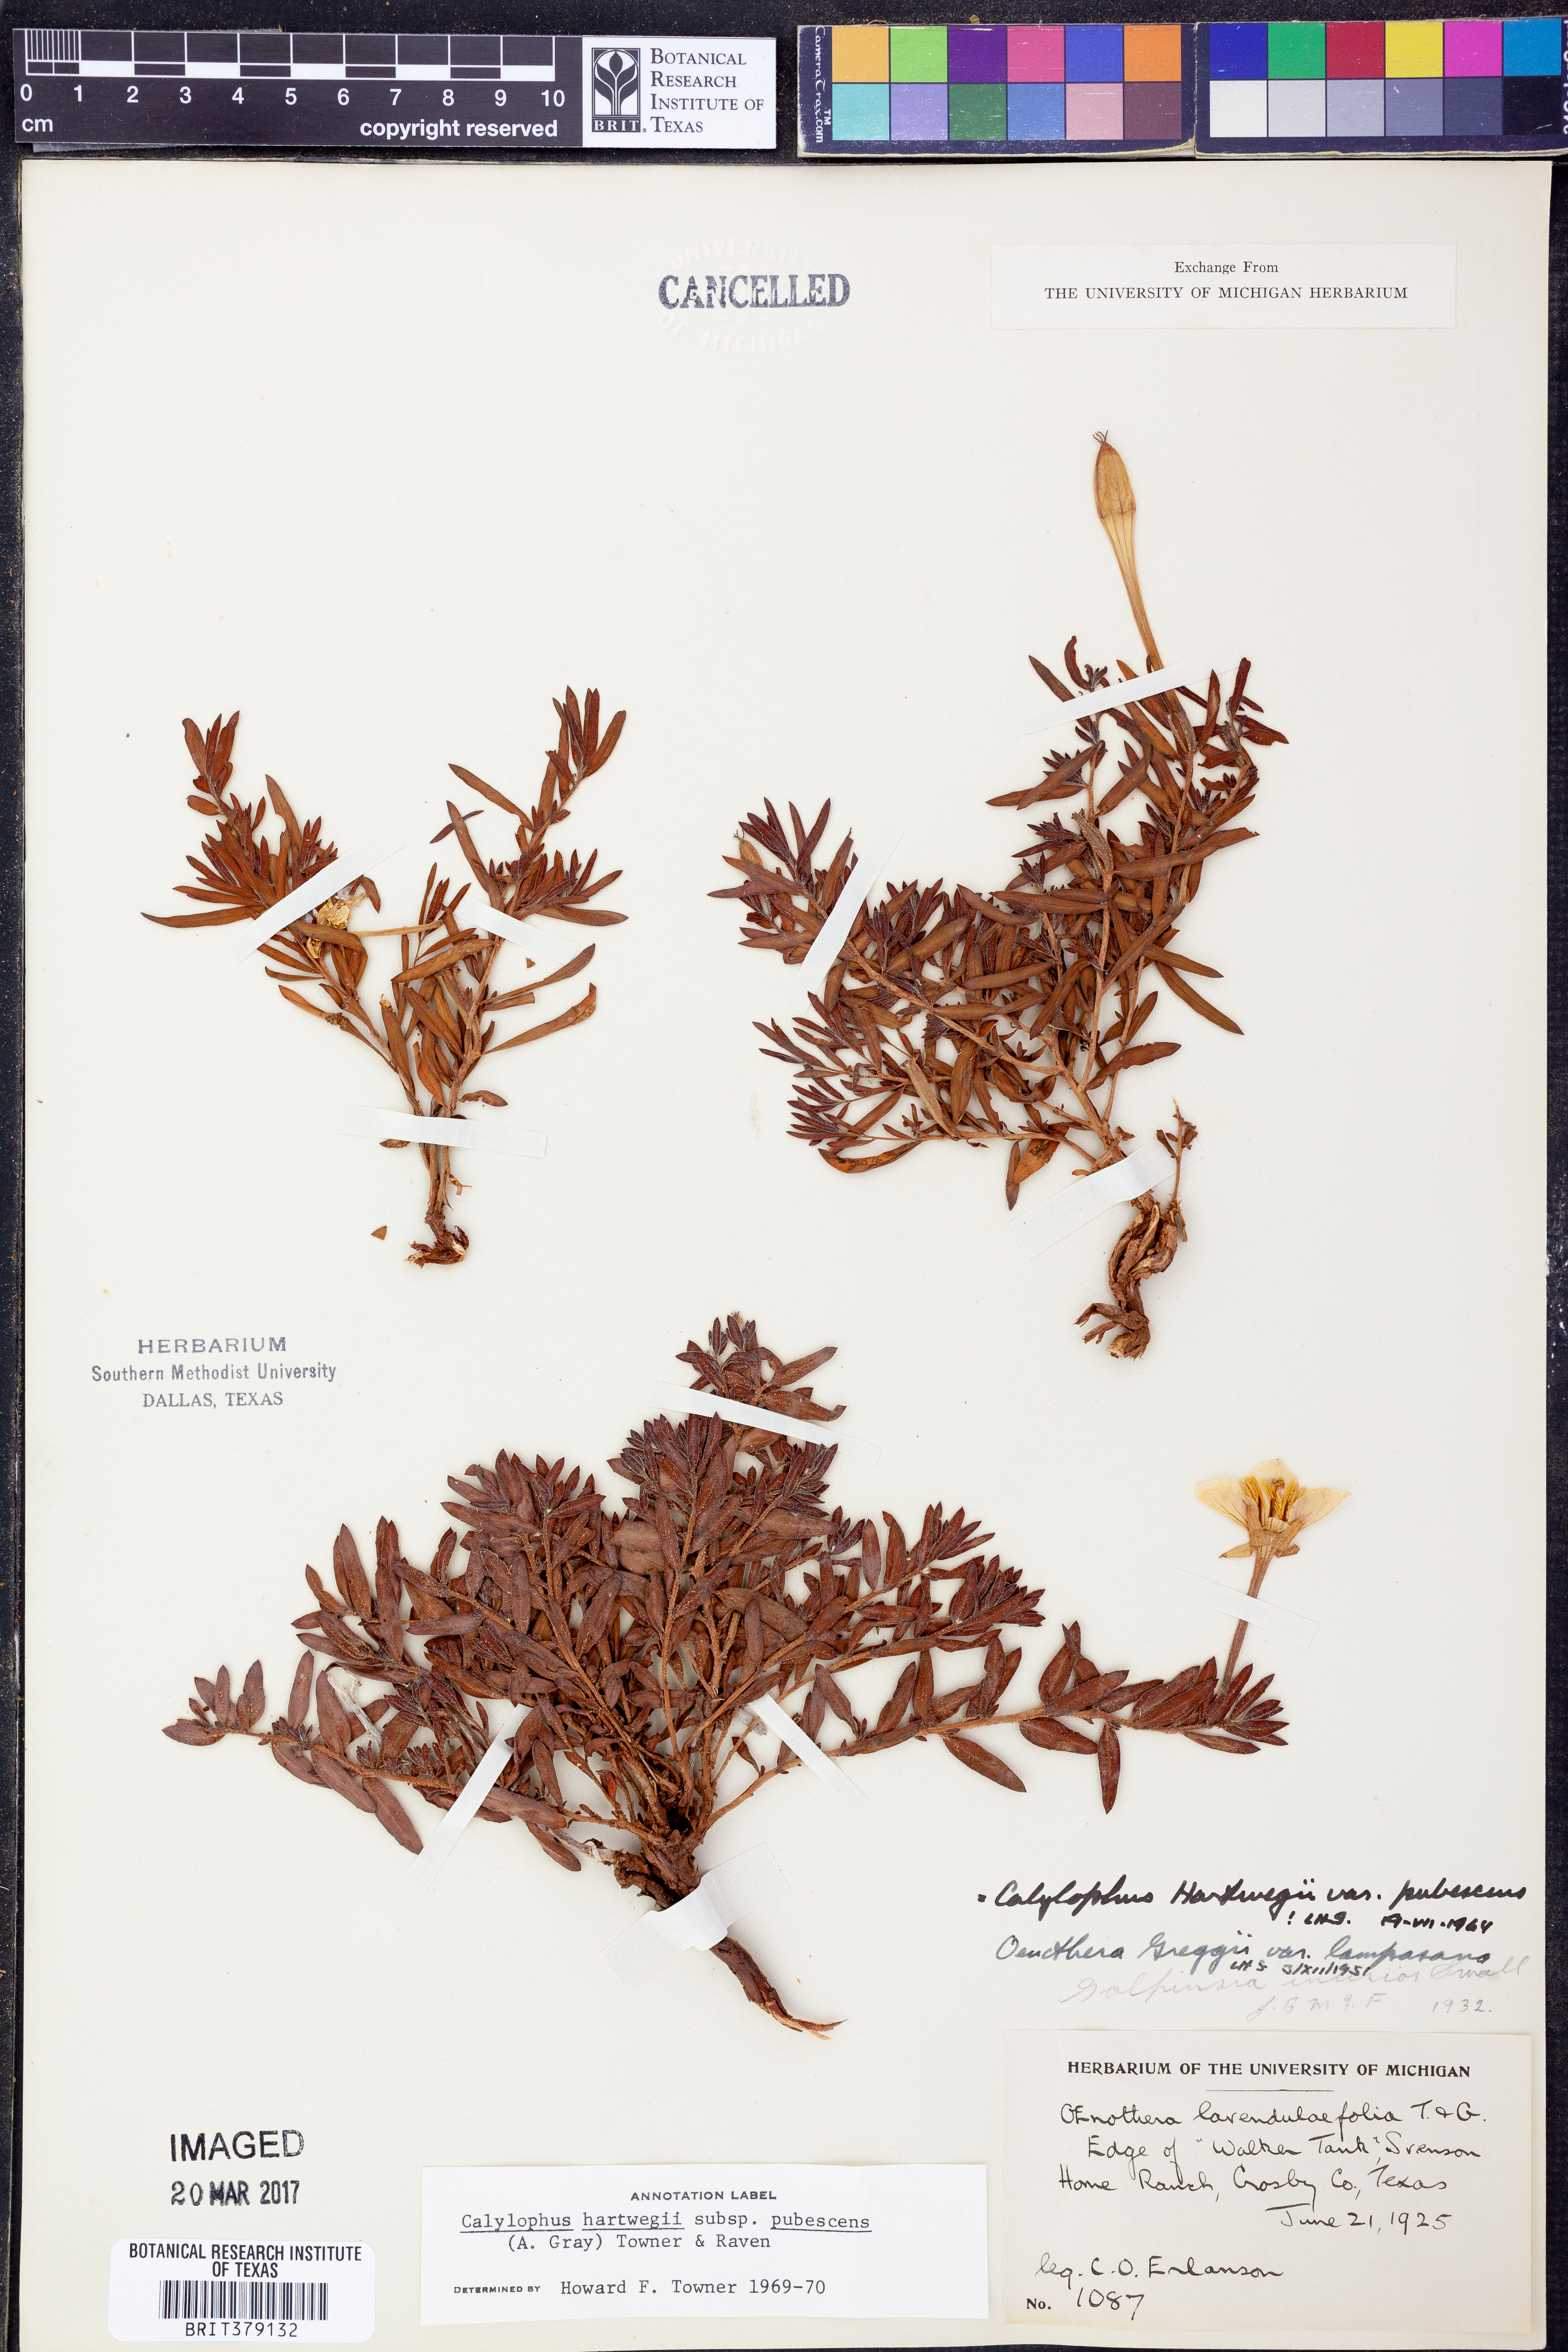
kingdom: Plantae
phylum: Tracheophyta
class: Magnoliopsida
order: Myrtales
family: Onagraceae
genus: Oenothera
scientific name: Oenothera hartwegii
